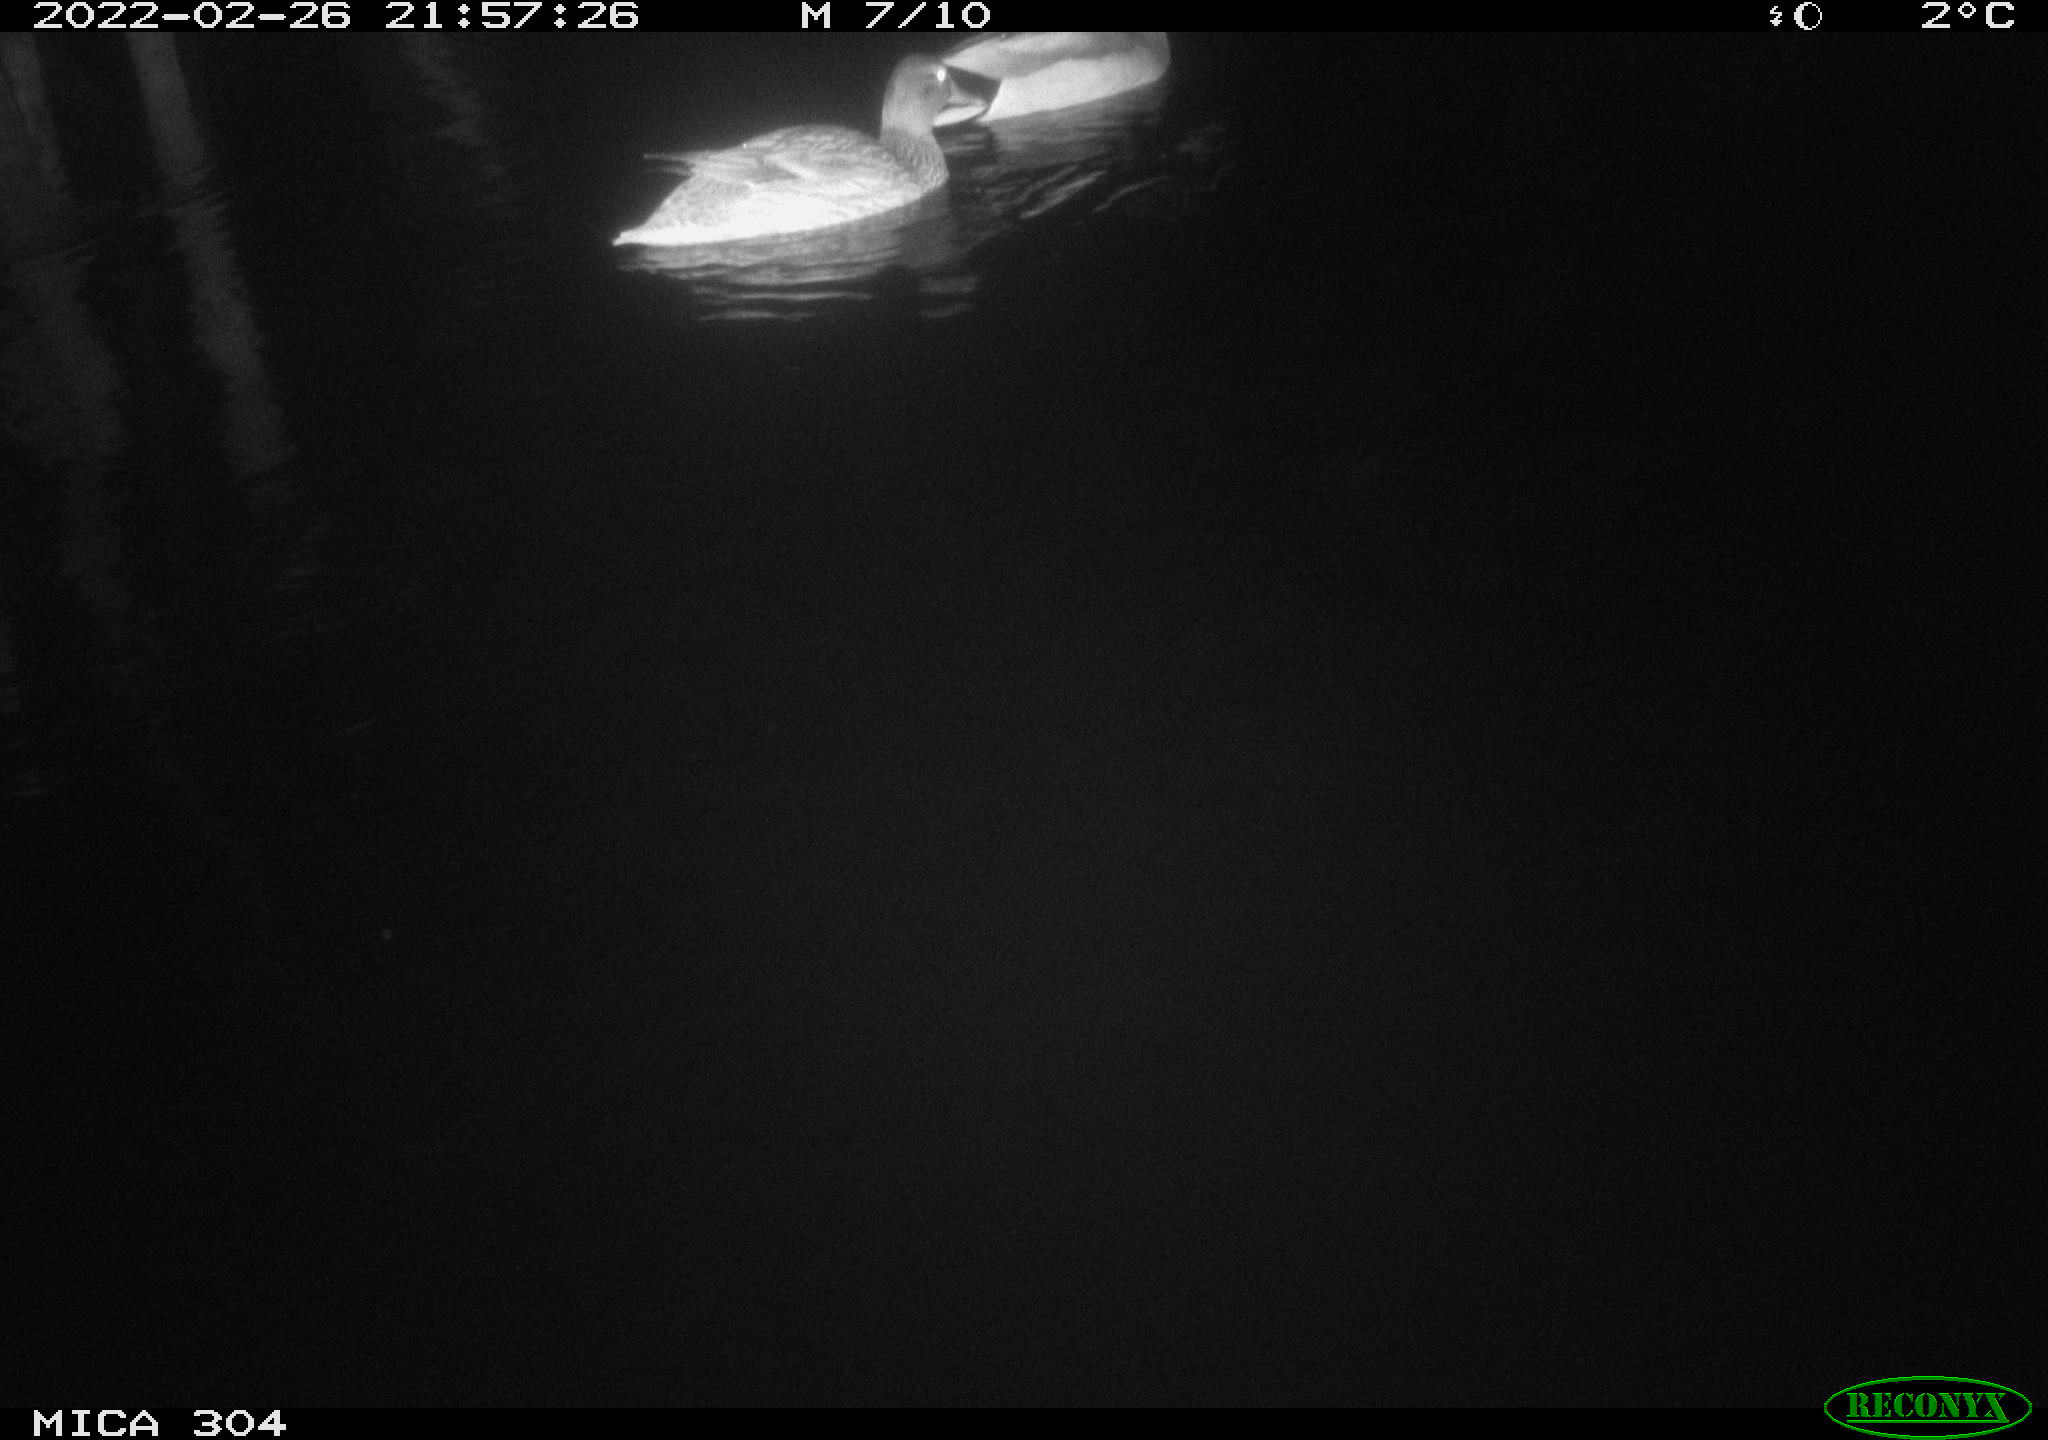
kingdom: Animalia
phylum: Chordata
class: Aves
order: Anseriformes
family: Anatidae
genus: Anas
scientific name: Anas platyrhynchos
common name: Mallard
